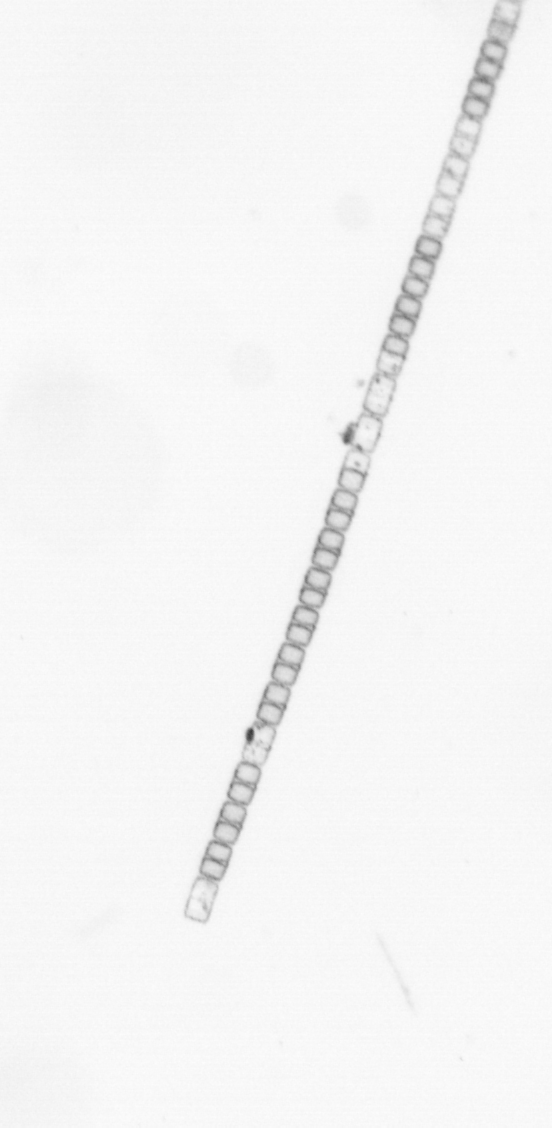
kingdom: Chromista
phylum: Ochrophyta
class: Bacillariophyceae
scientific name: Bacillariophyceae
